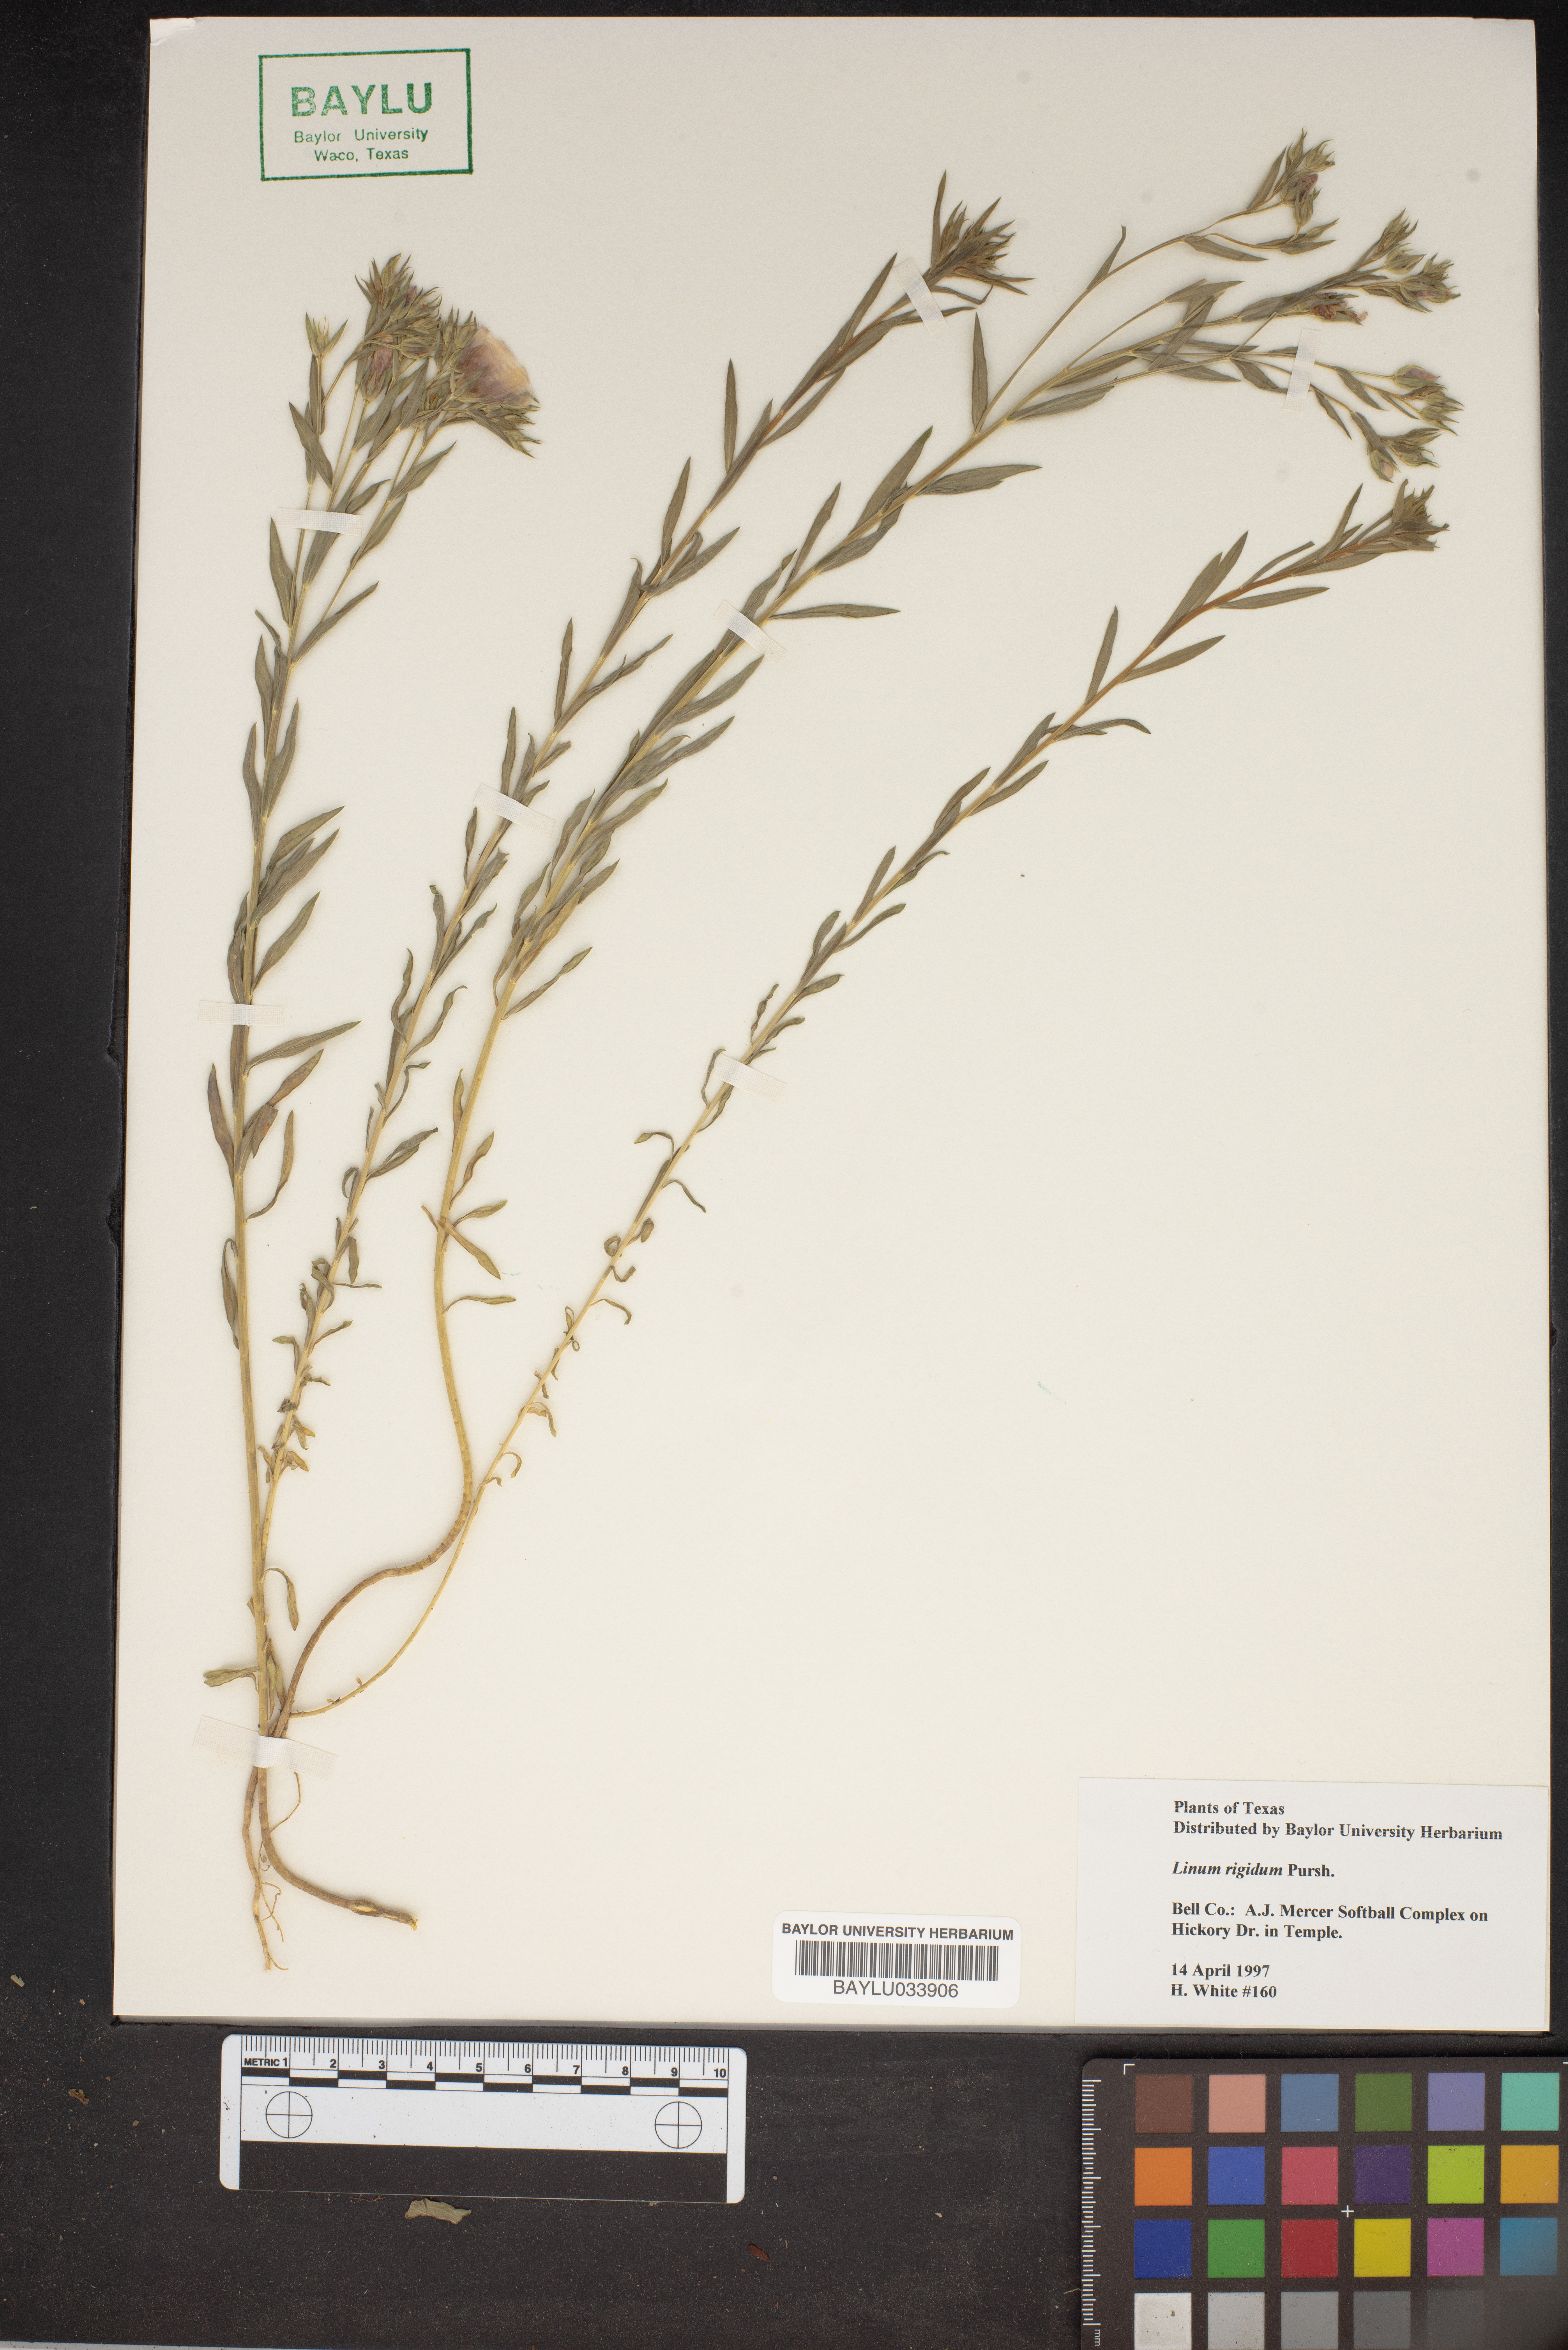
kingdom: Plantae
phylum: Tracheophyta
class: Magnoliopsida
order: Malpighiales
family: Linaceae
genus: Linum
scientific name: Linum rigidum
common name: Stiff-stem flax
